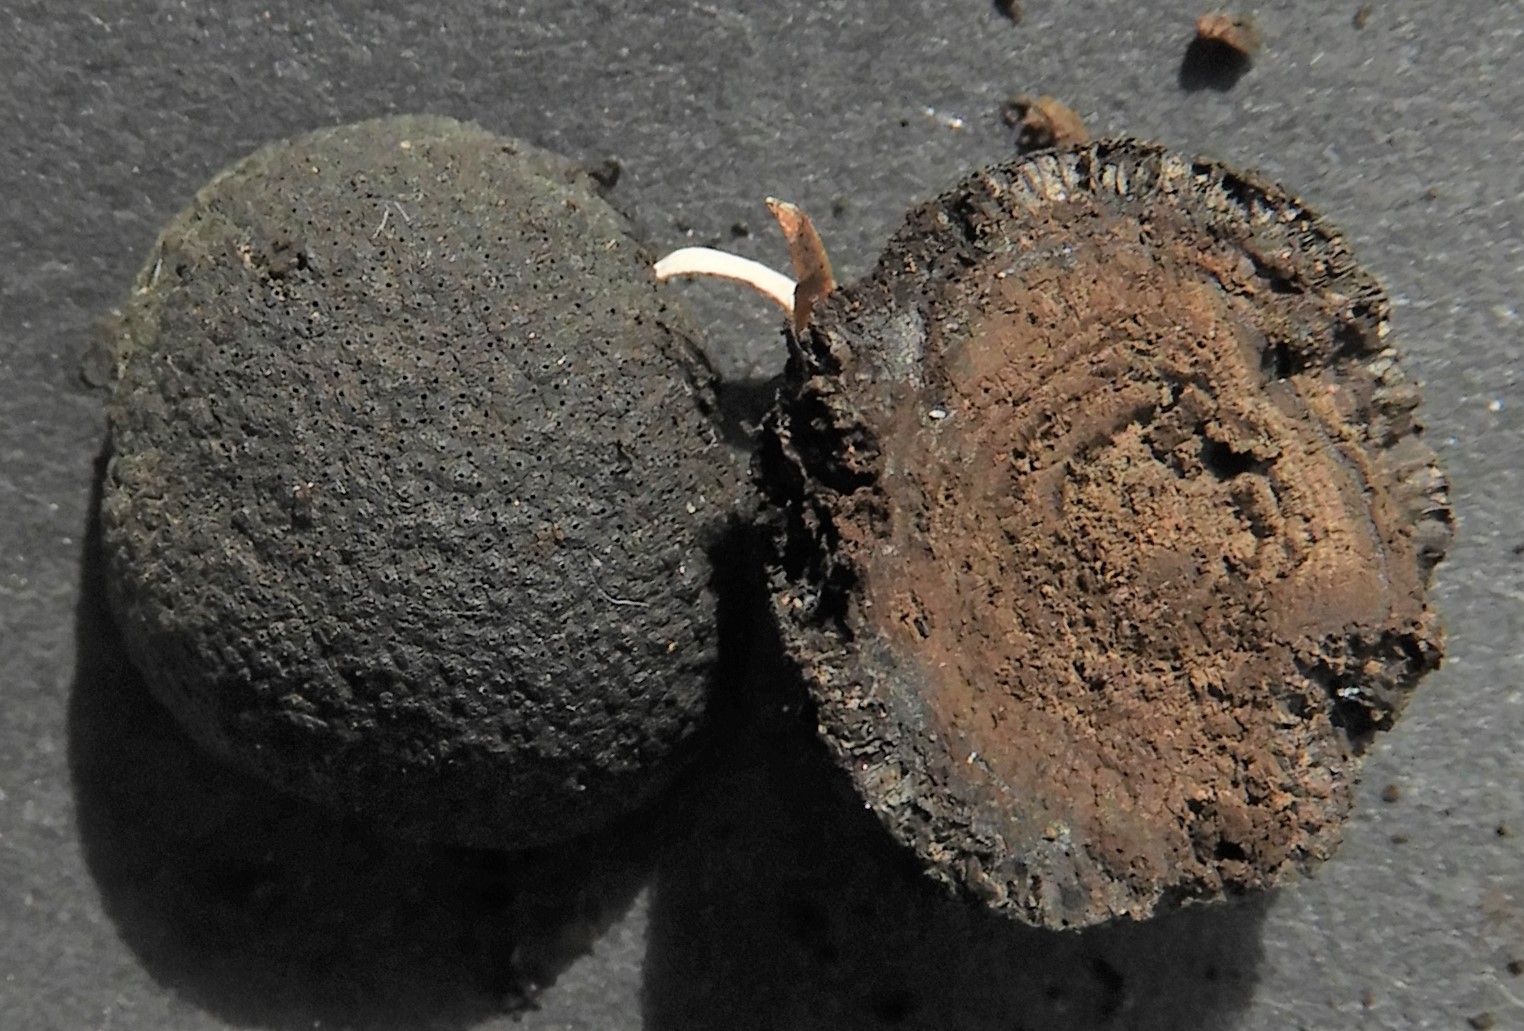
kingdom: Fungi
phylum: Ascomycota
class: Sordariomycetes
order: Xylariales
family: Hypoxylaceae
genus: Daldinia
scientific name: Daldinia
